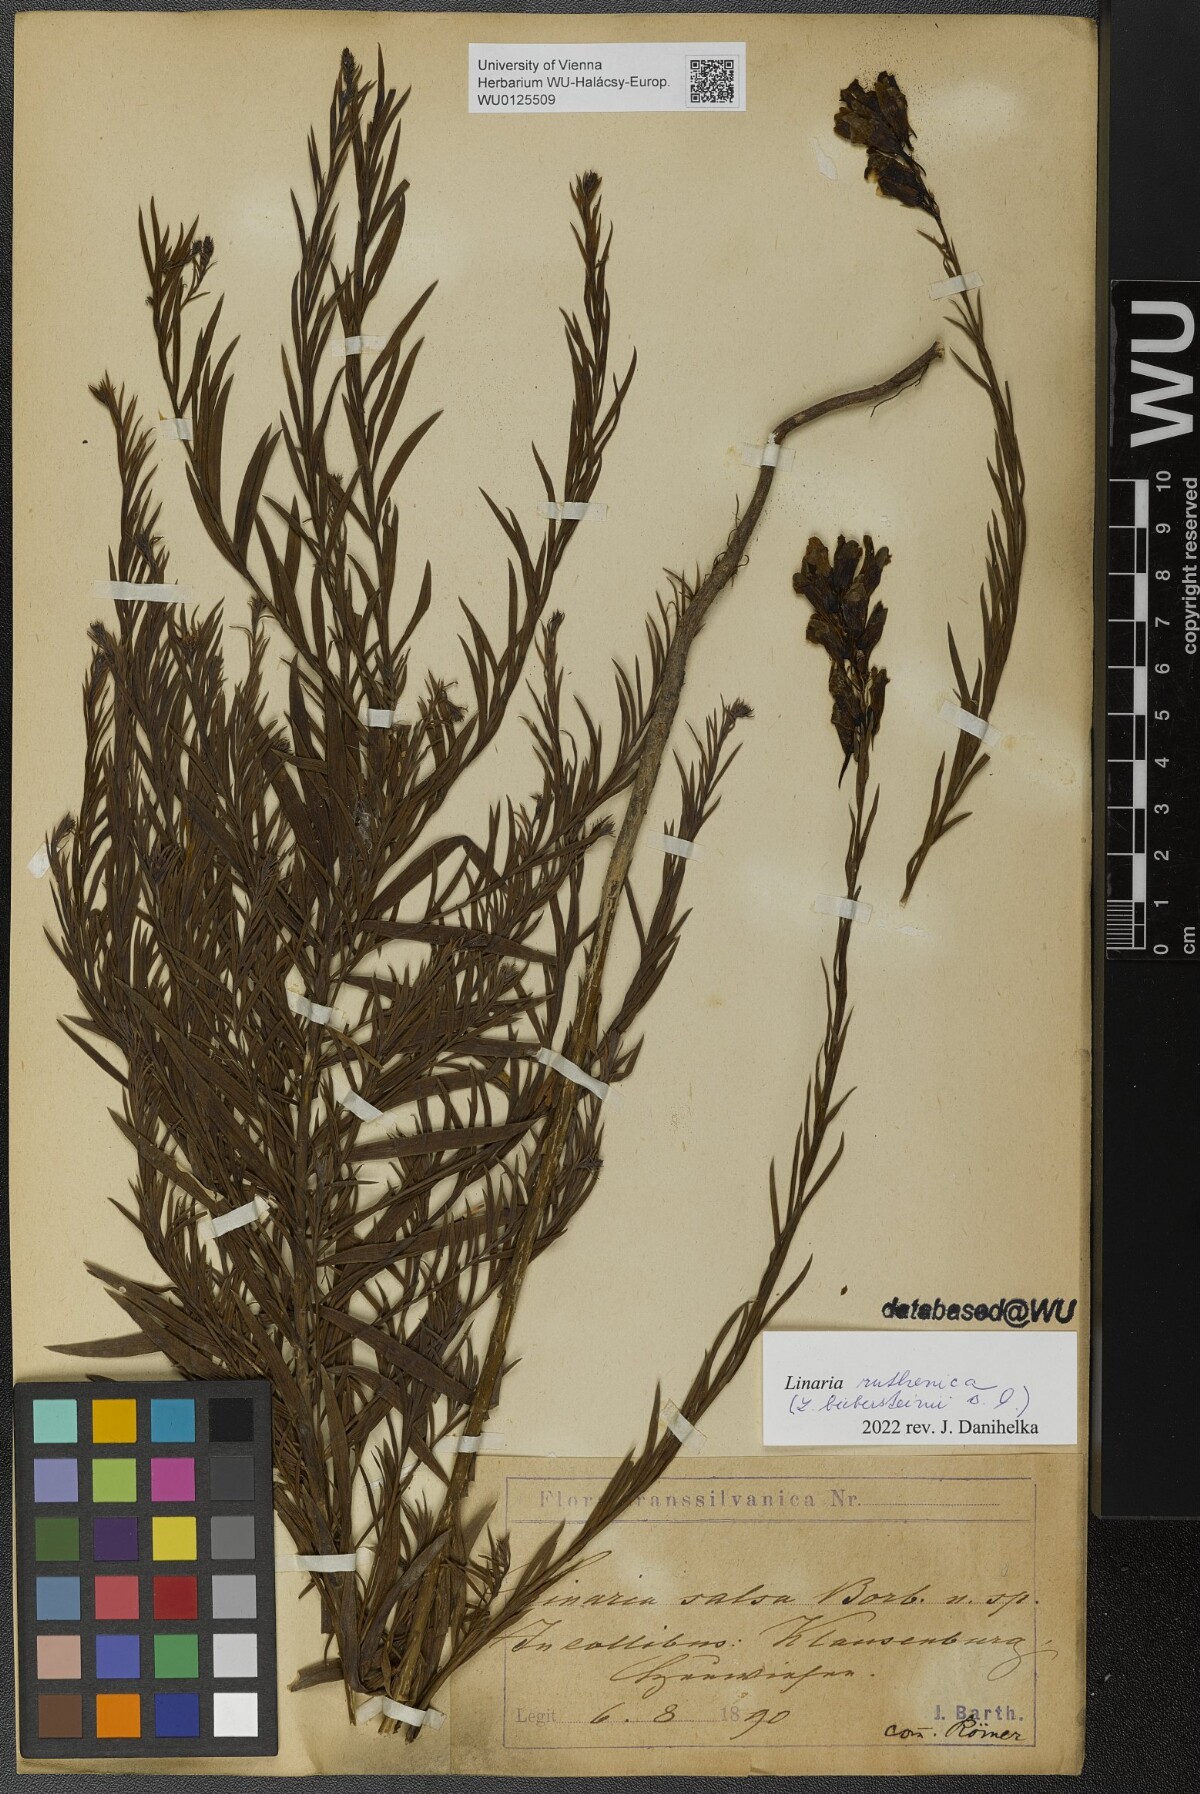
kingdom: Plantae
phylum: Tracheophyta
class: Magnoliopsida
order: Lamiales
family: Plantaginaceae
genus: Linaria
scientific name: Linaria biebersteinii
